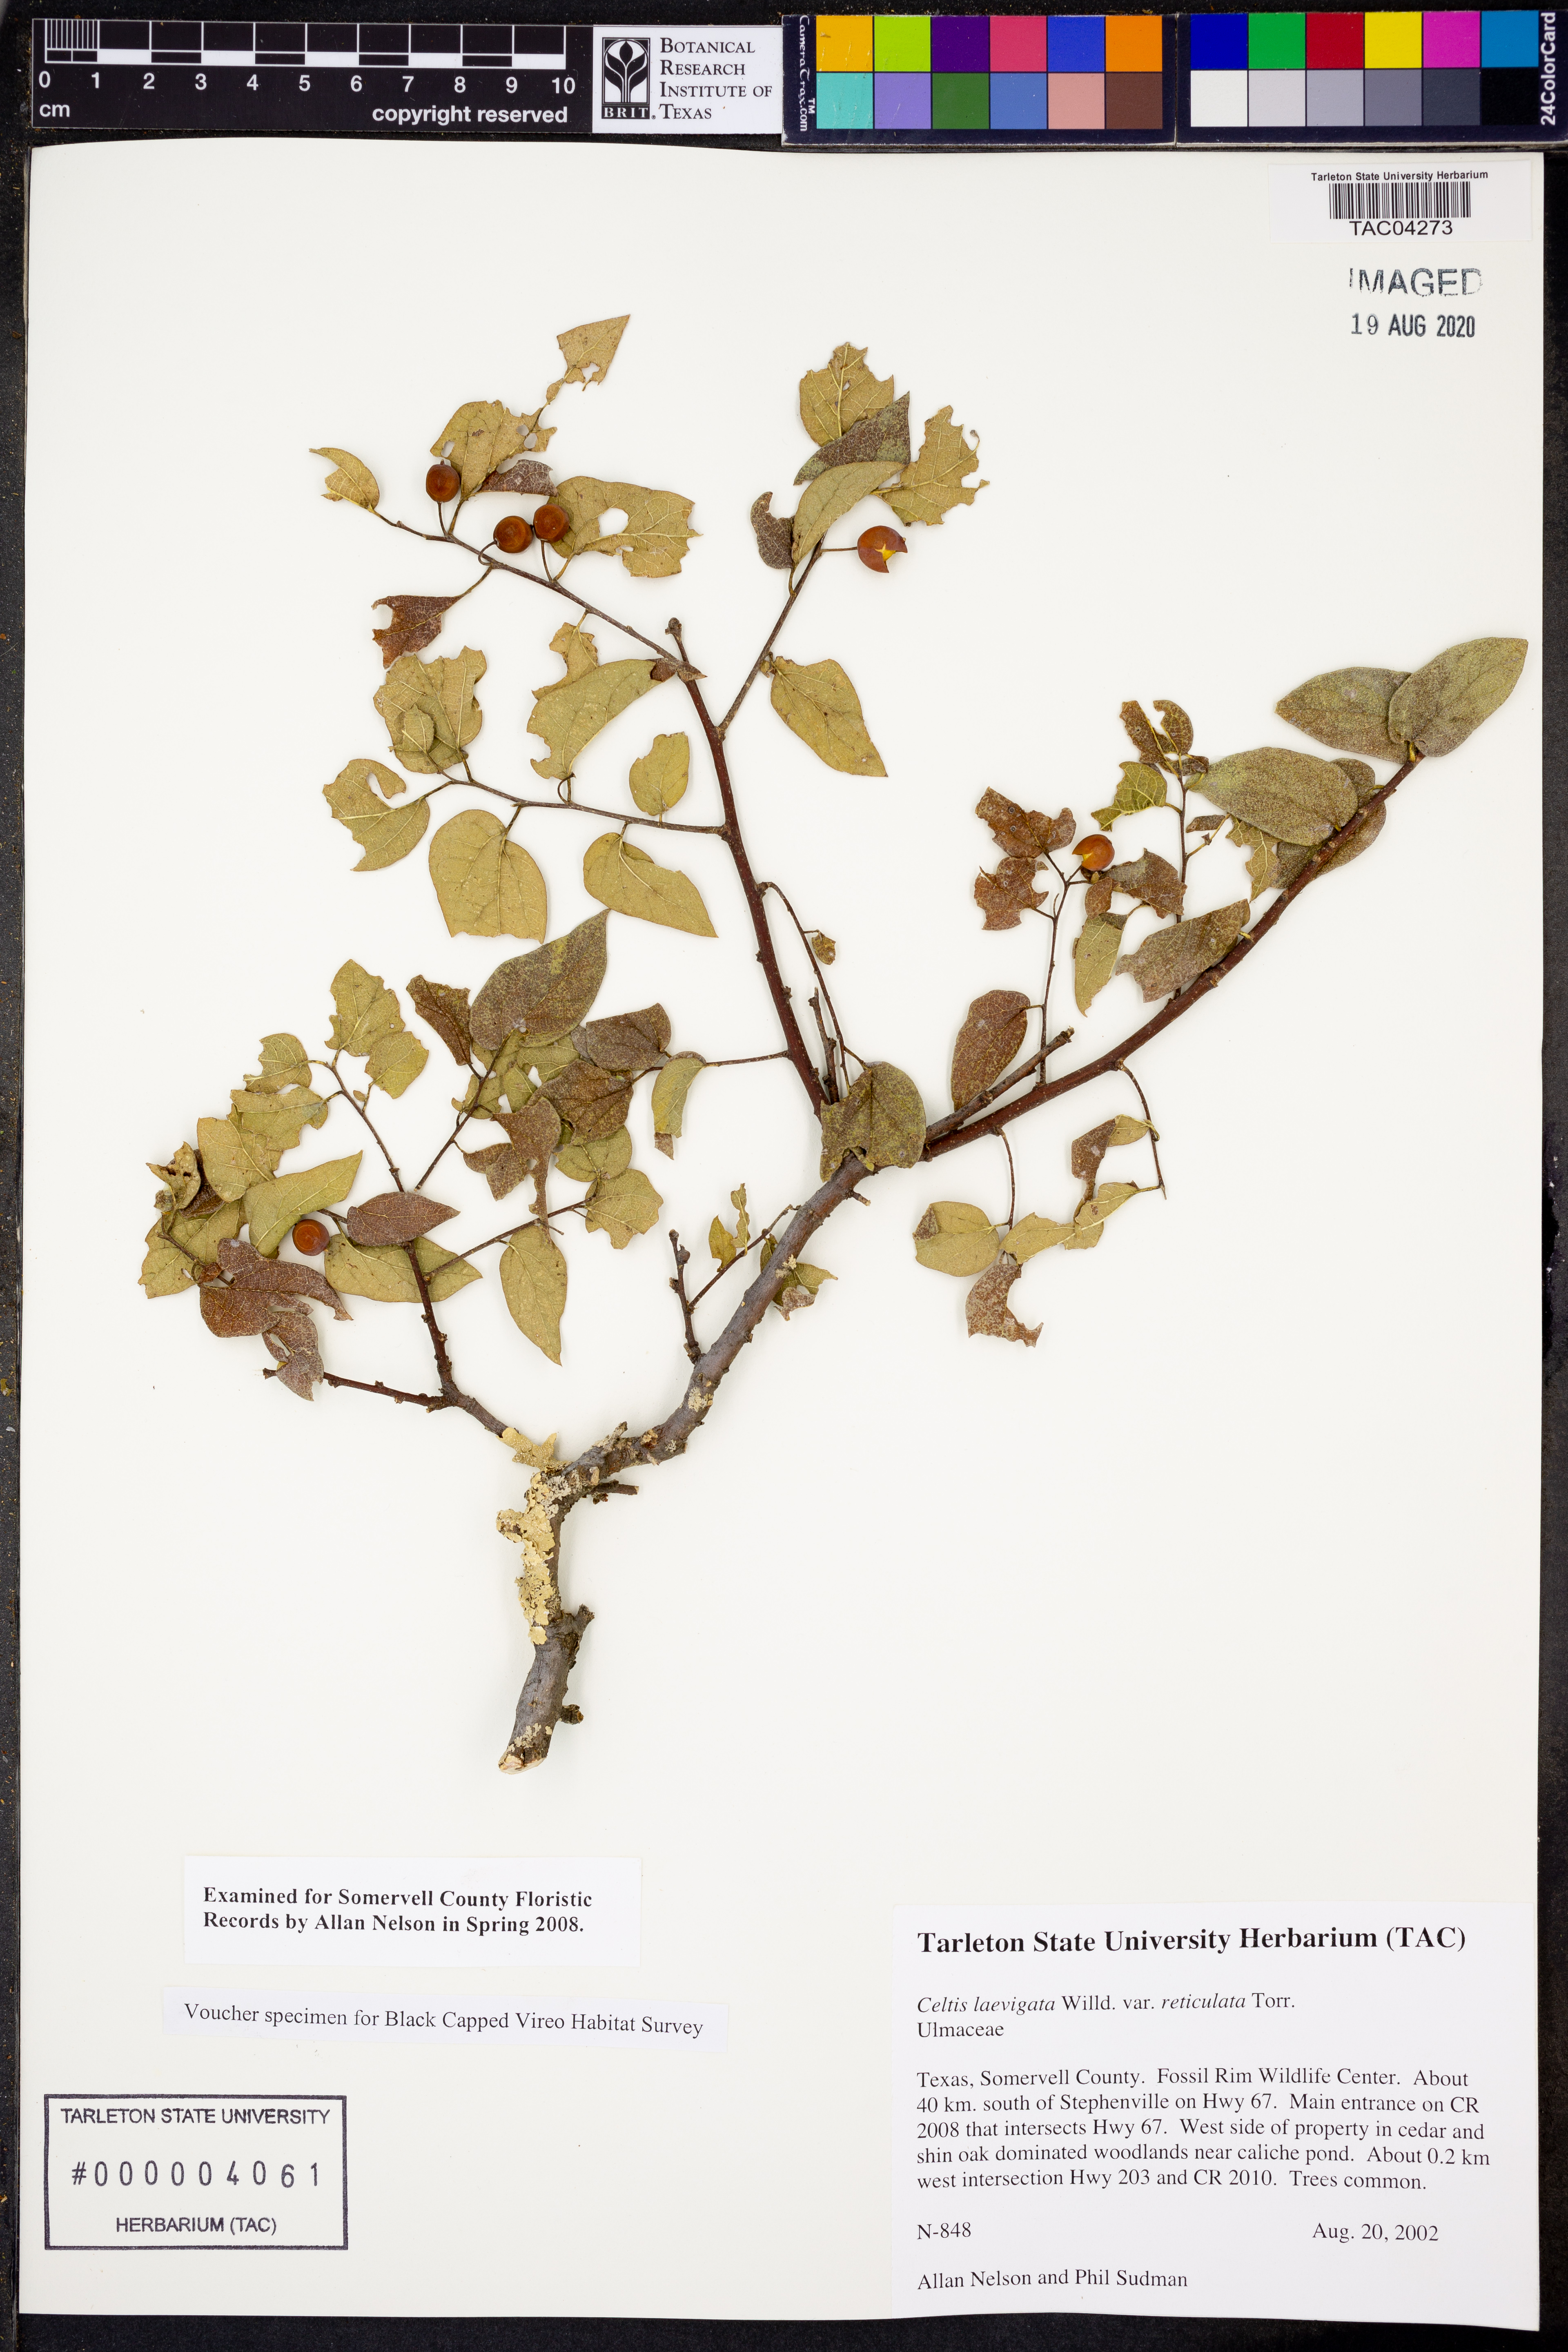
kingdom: Plantae
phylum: Tracheophyta
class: Magnoliopsida
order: Rosales
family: Cannabaceae
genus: Celtis
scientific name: Celtis laevigata
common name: Sugarberry
